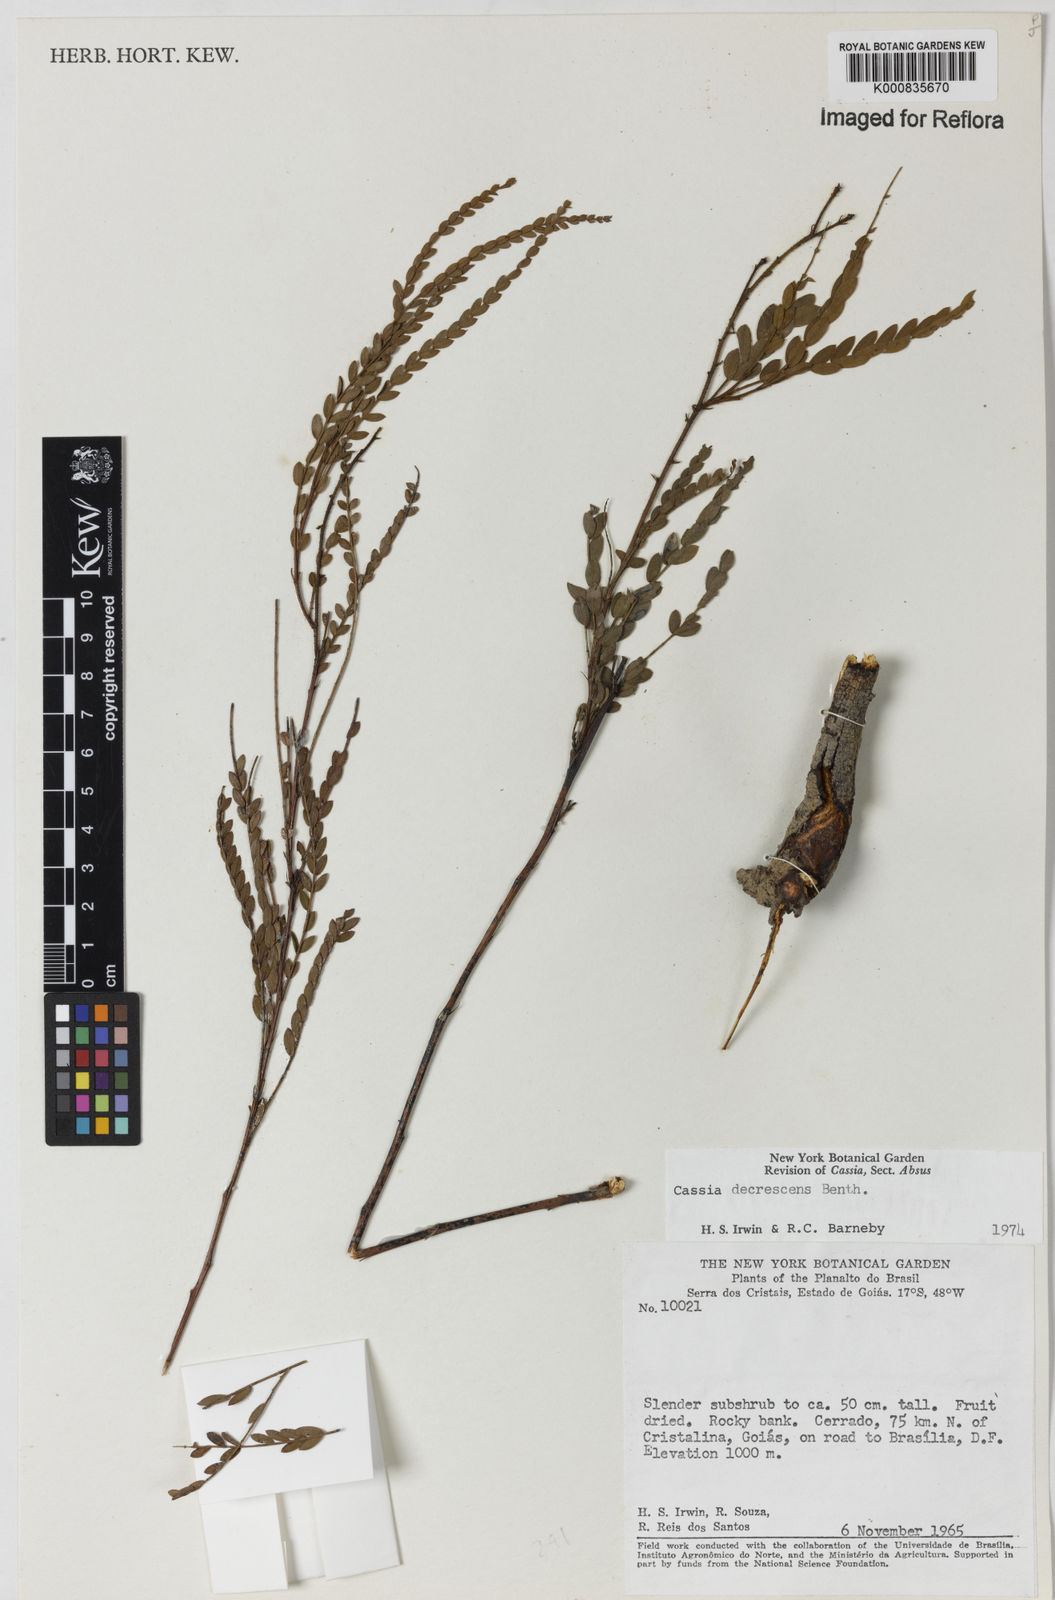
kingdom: Plantae
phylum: Tracheophyta
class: Magnoliopsida
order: Fabales
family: Fabaceae
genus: Chamaecrista
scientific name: Chamaecrista decrescens
